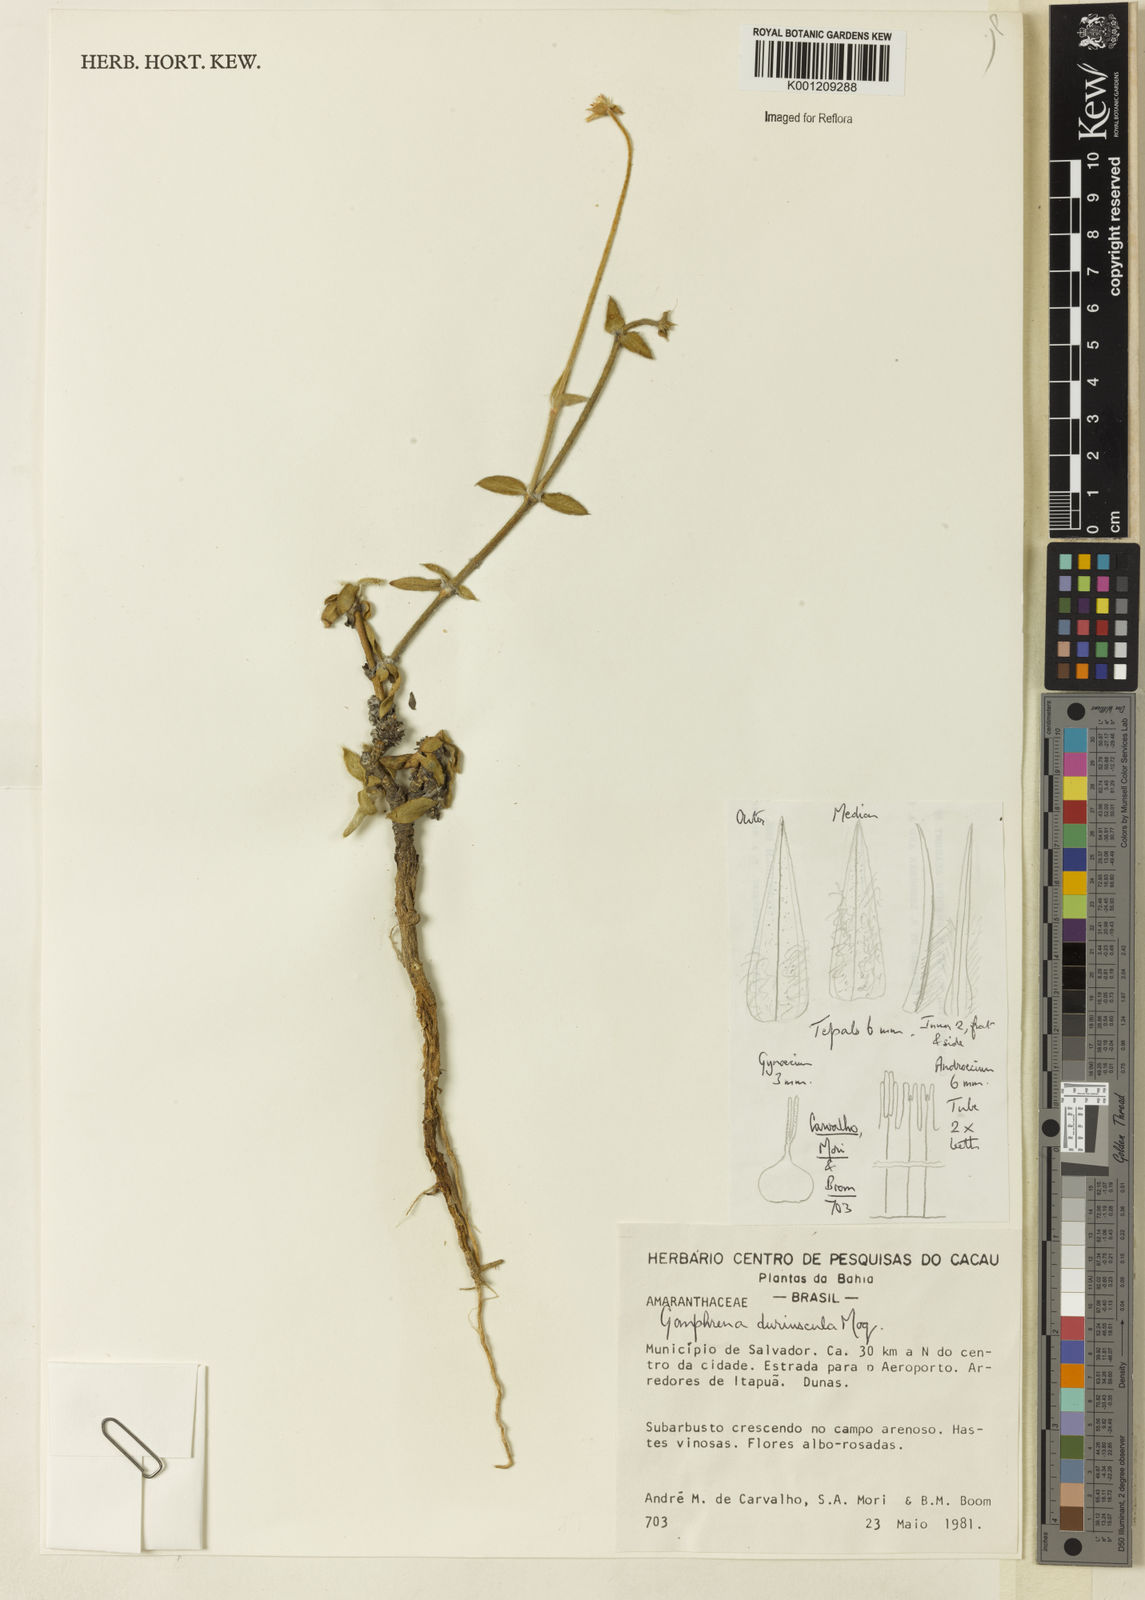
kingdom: Plantae
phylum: Tracheophyta
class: Magnoliopsida
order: Caryophyllales
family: Amaranthaceae
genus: Gomphrena
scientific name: Gomphrena duriuscula
